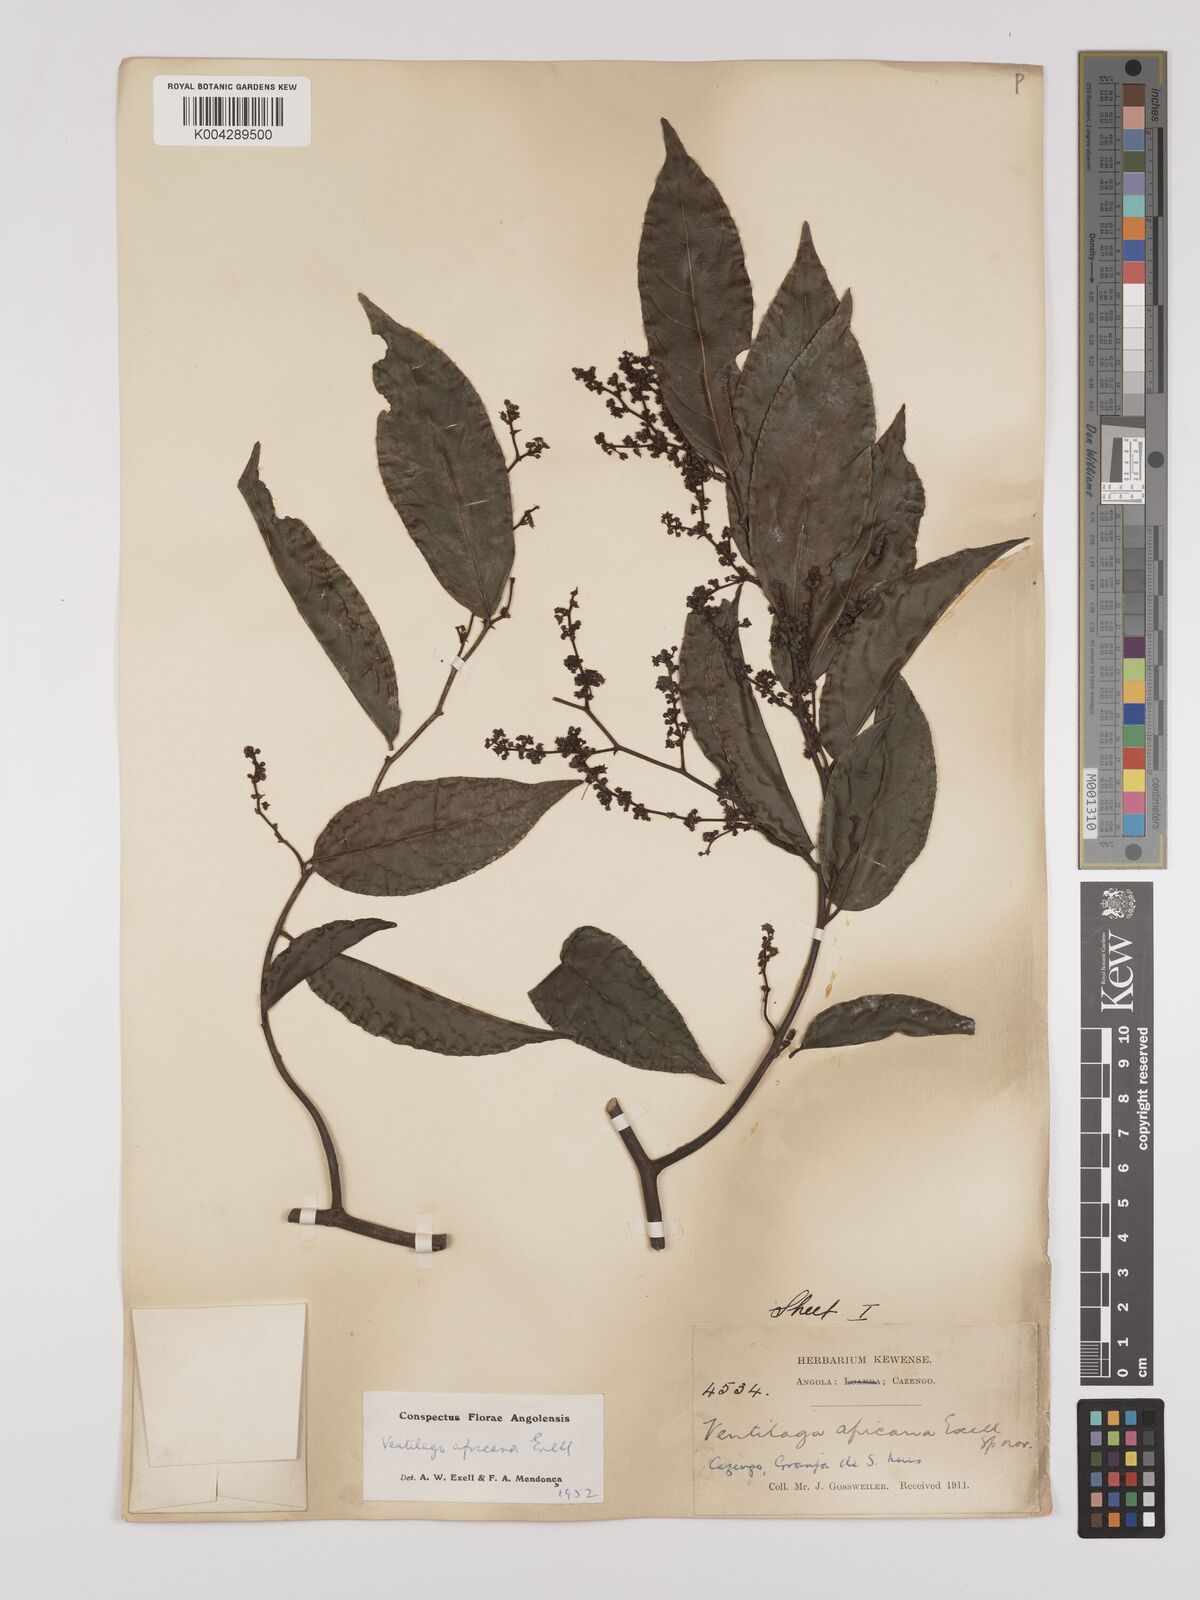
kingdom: Plantae
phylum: Tracheophyta
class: Magnoliopsida
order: Rosales
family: Rhamnaceae
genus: Ventilago
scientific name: Ventilago africana
